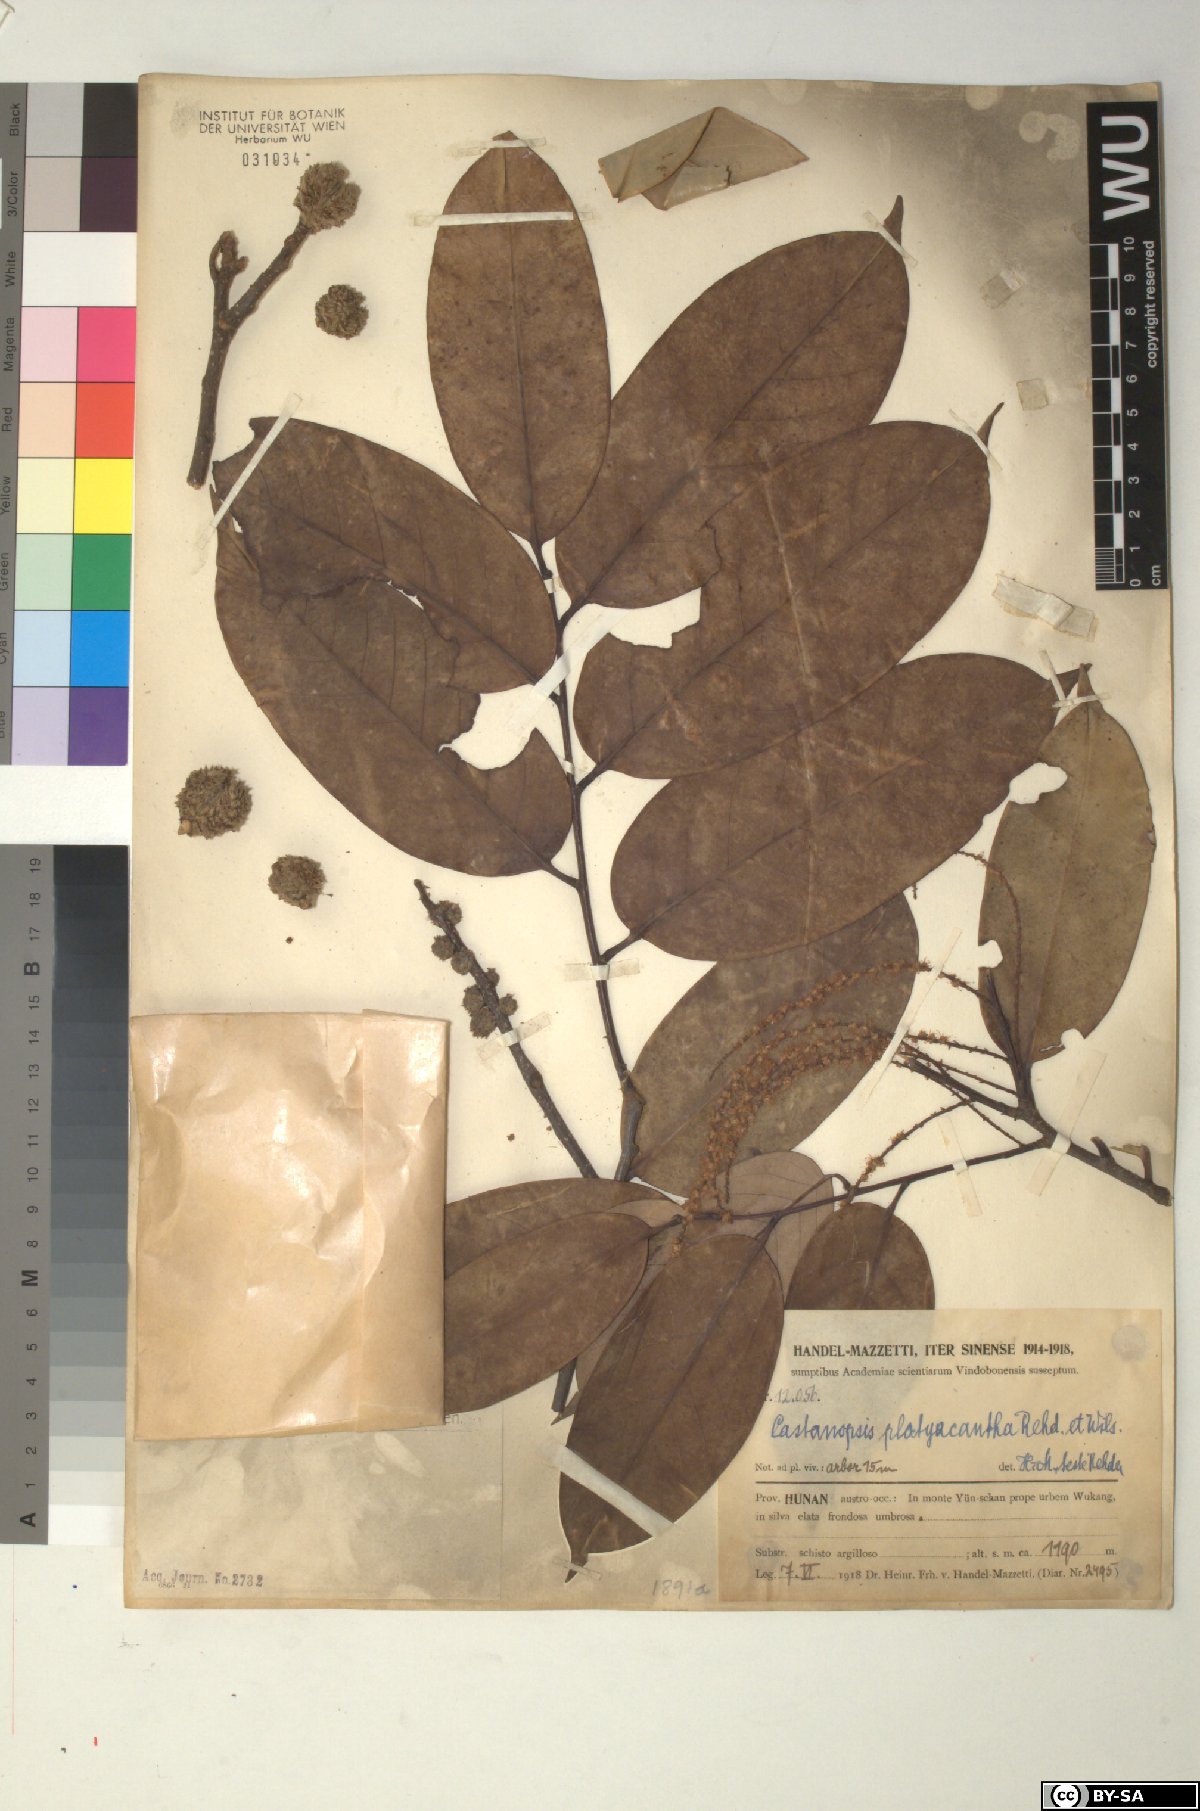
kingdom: Plantae
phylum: Tracheophyta
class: Magnoliopsida
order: Fagales
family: Fagaceae
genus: Castanopsis
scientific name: Castanopsis platyacantha
